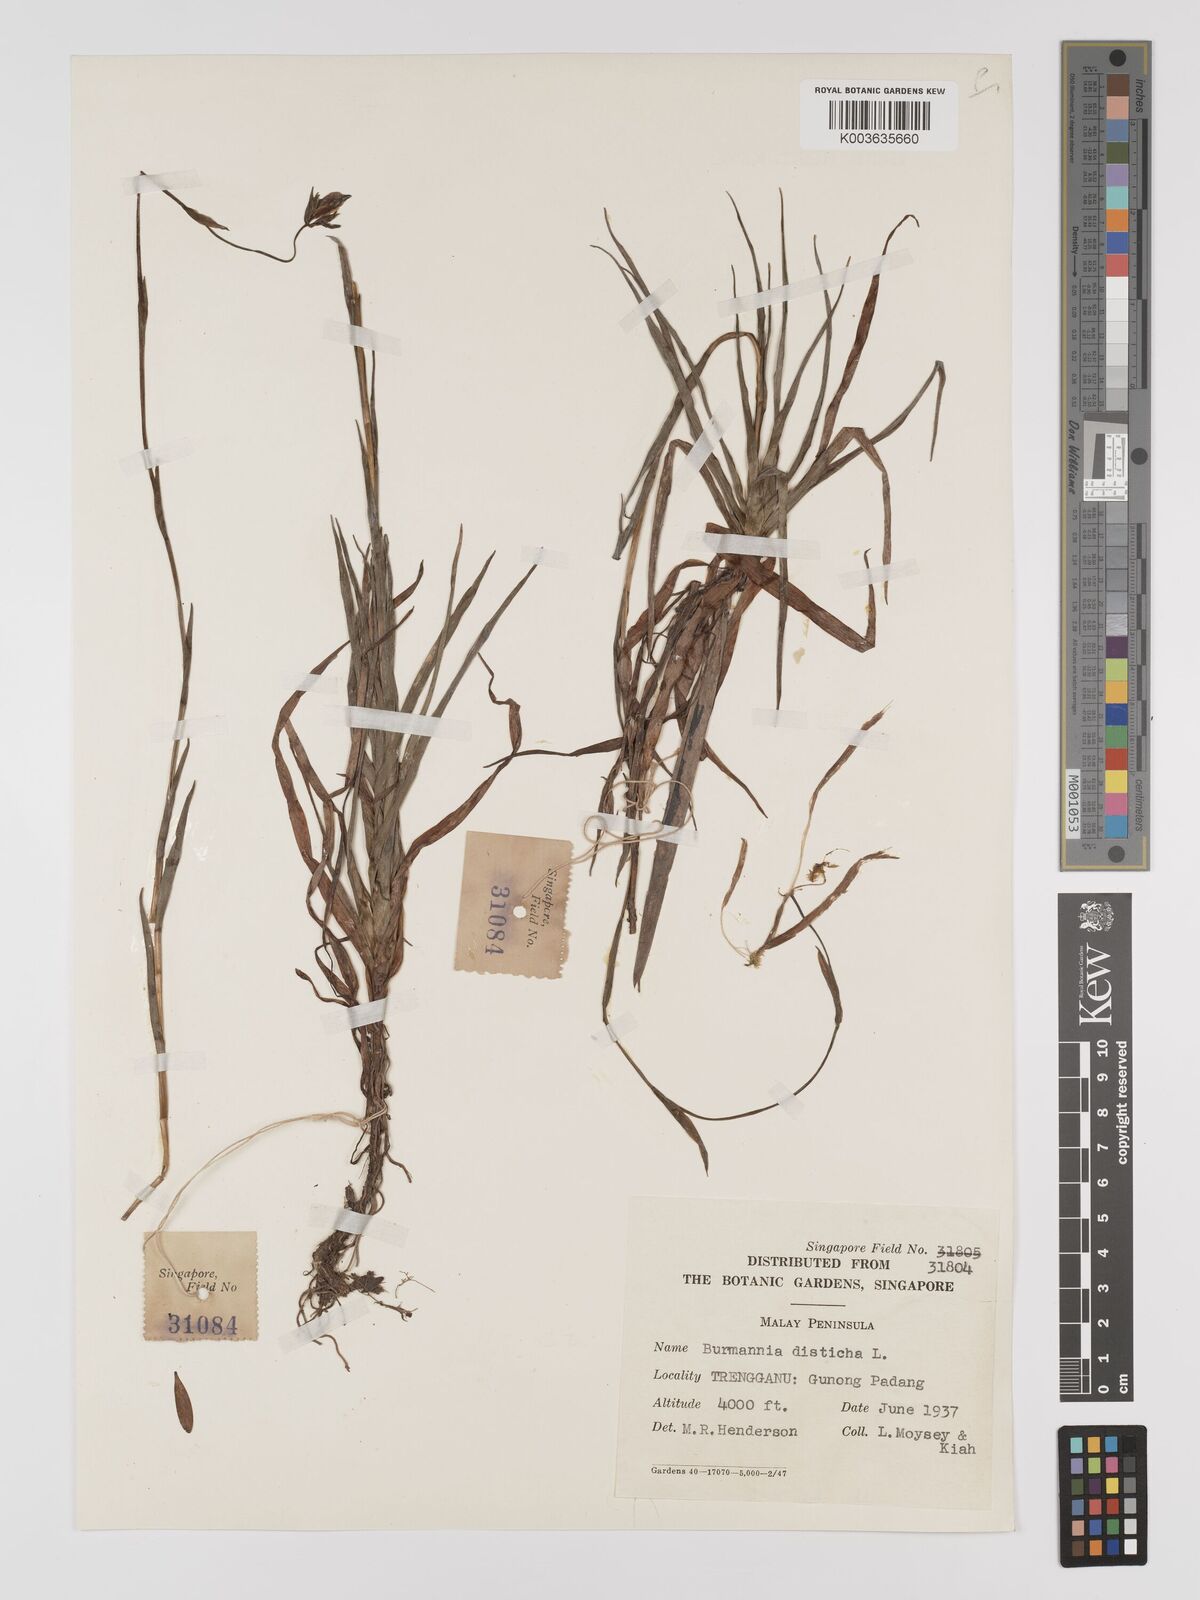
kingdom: Plantae
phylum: Tracheophyta
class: Liliopsida
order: Dioscoreales
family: Burmanniaceae
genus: Burmannia
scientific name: Burmannia disticha
